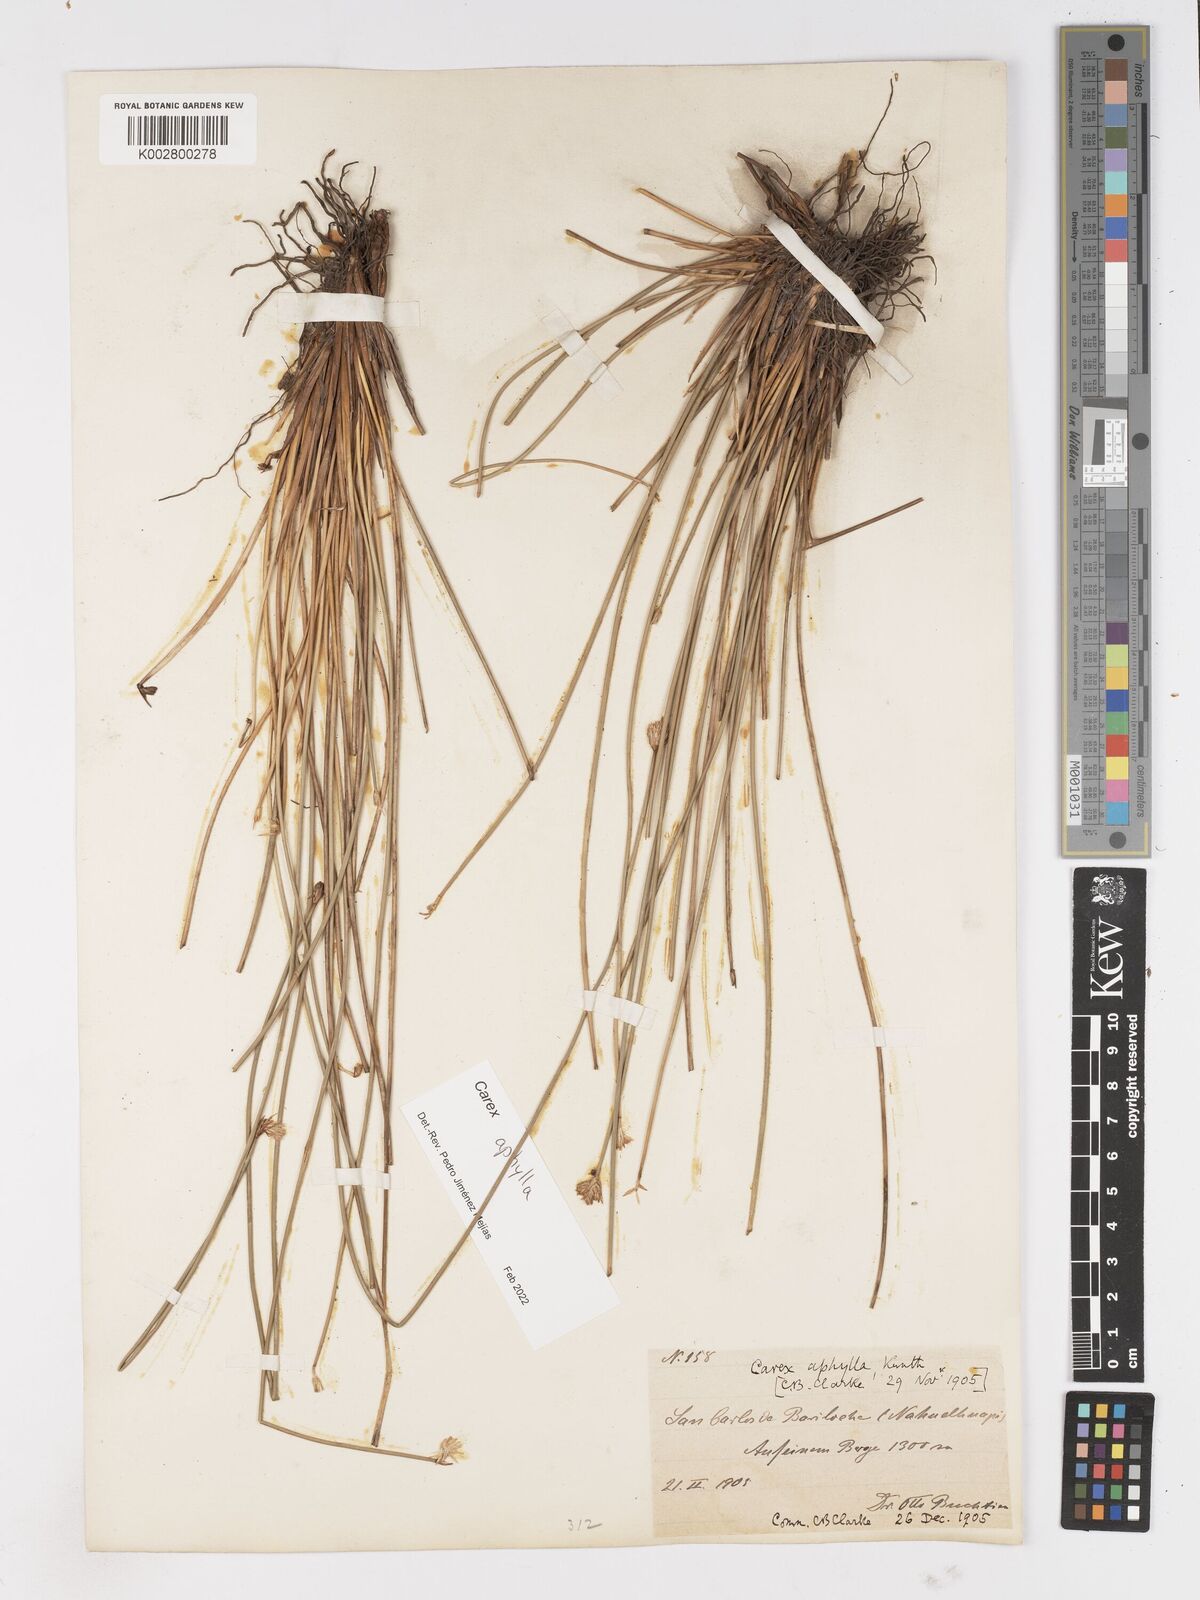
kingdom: Plantae
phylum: Tracheophyta
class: Liliopsida
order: Poales
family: Cyperaceae
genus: Carex
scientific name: Carex aphylla
